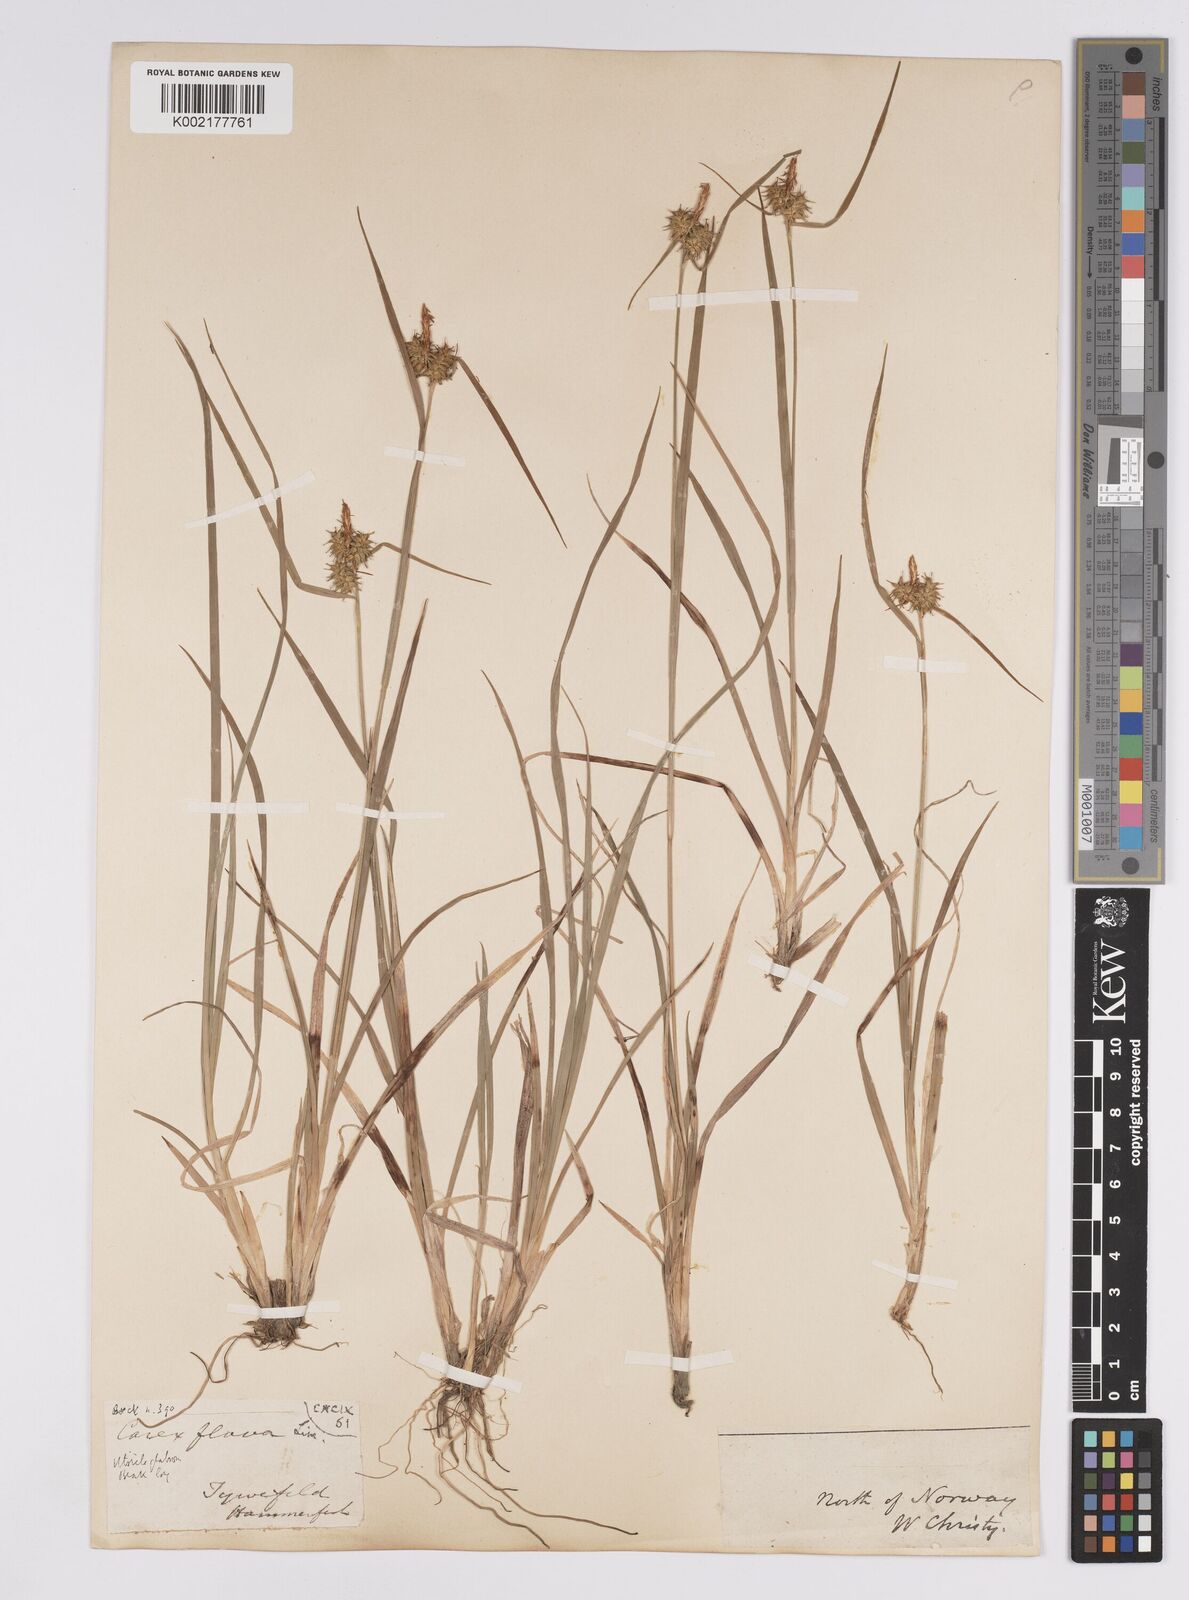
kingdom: Plantae
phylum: Tracheophyta
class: Liliopsida
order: Poales
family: Cyperaceae
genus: Carex
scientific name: Carex flava
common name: Large yellow-sedge
